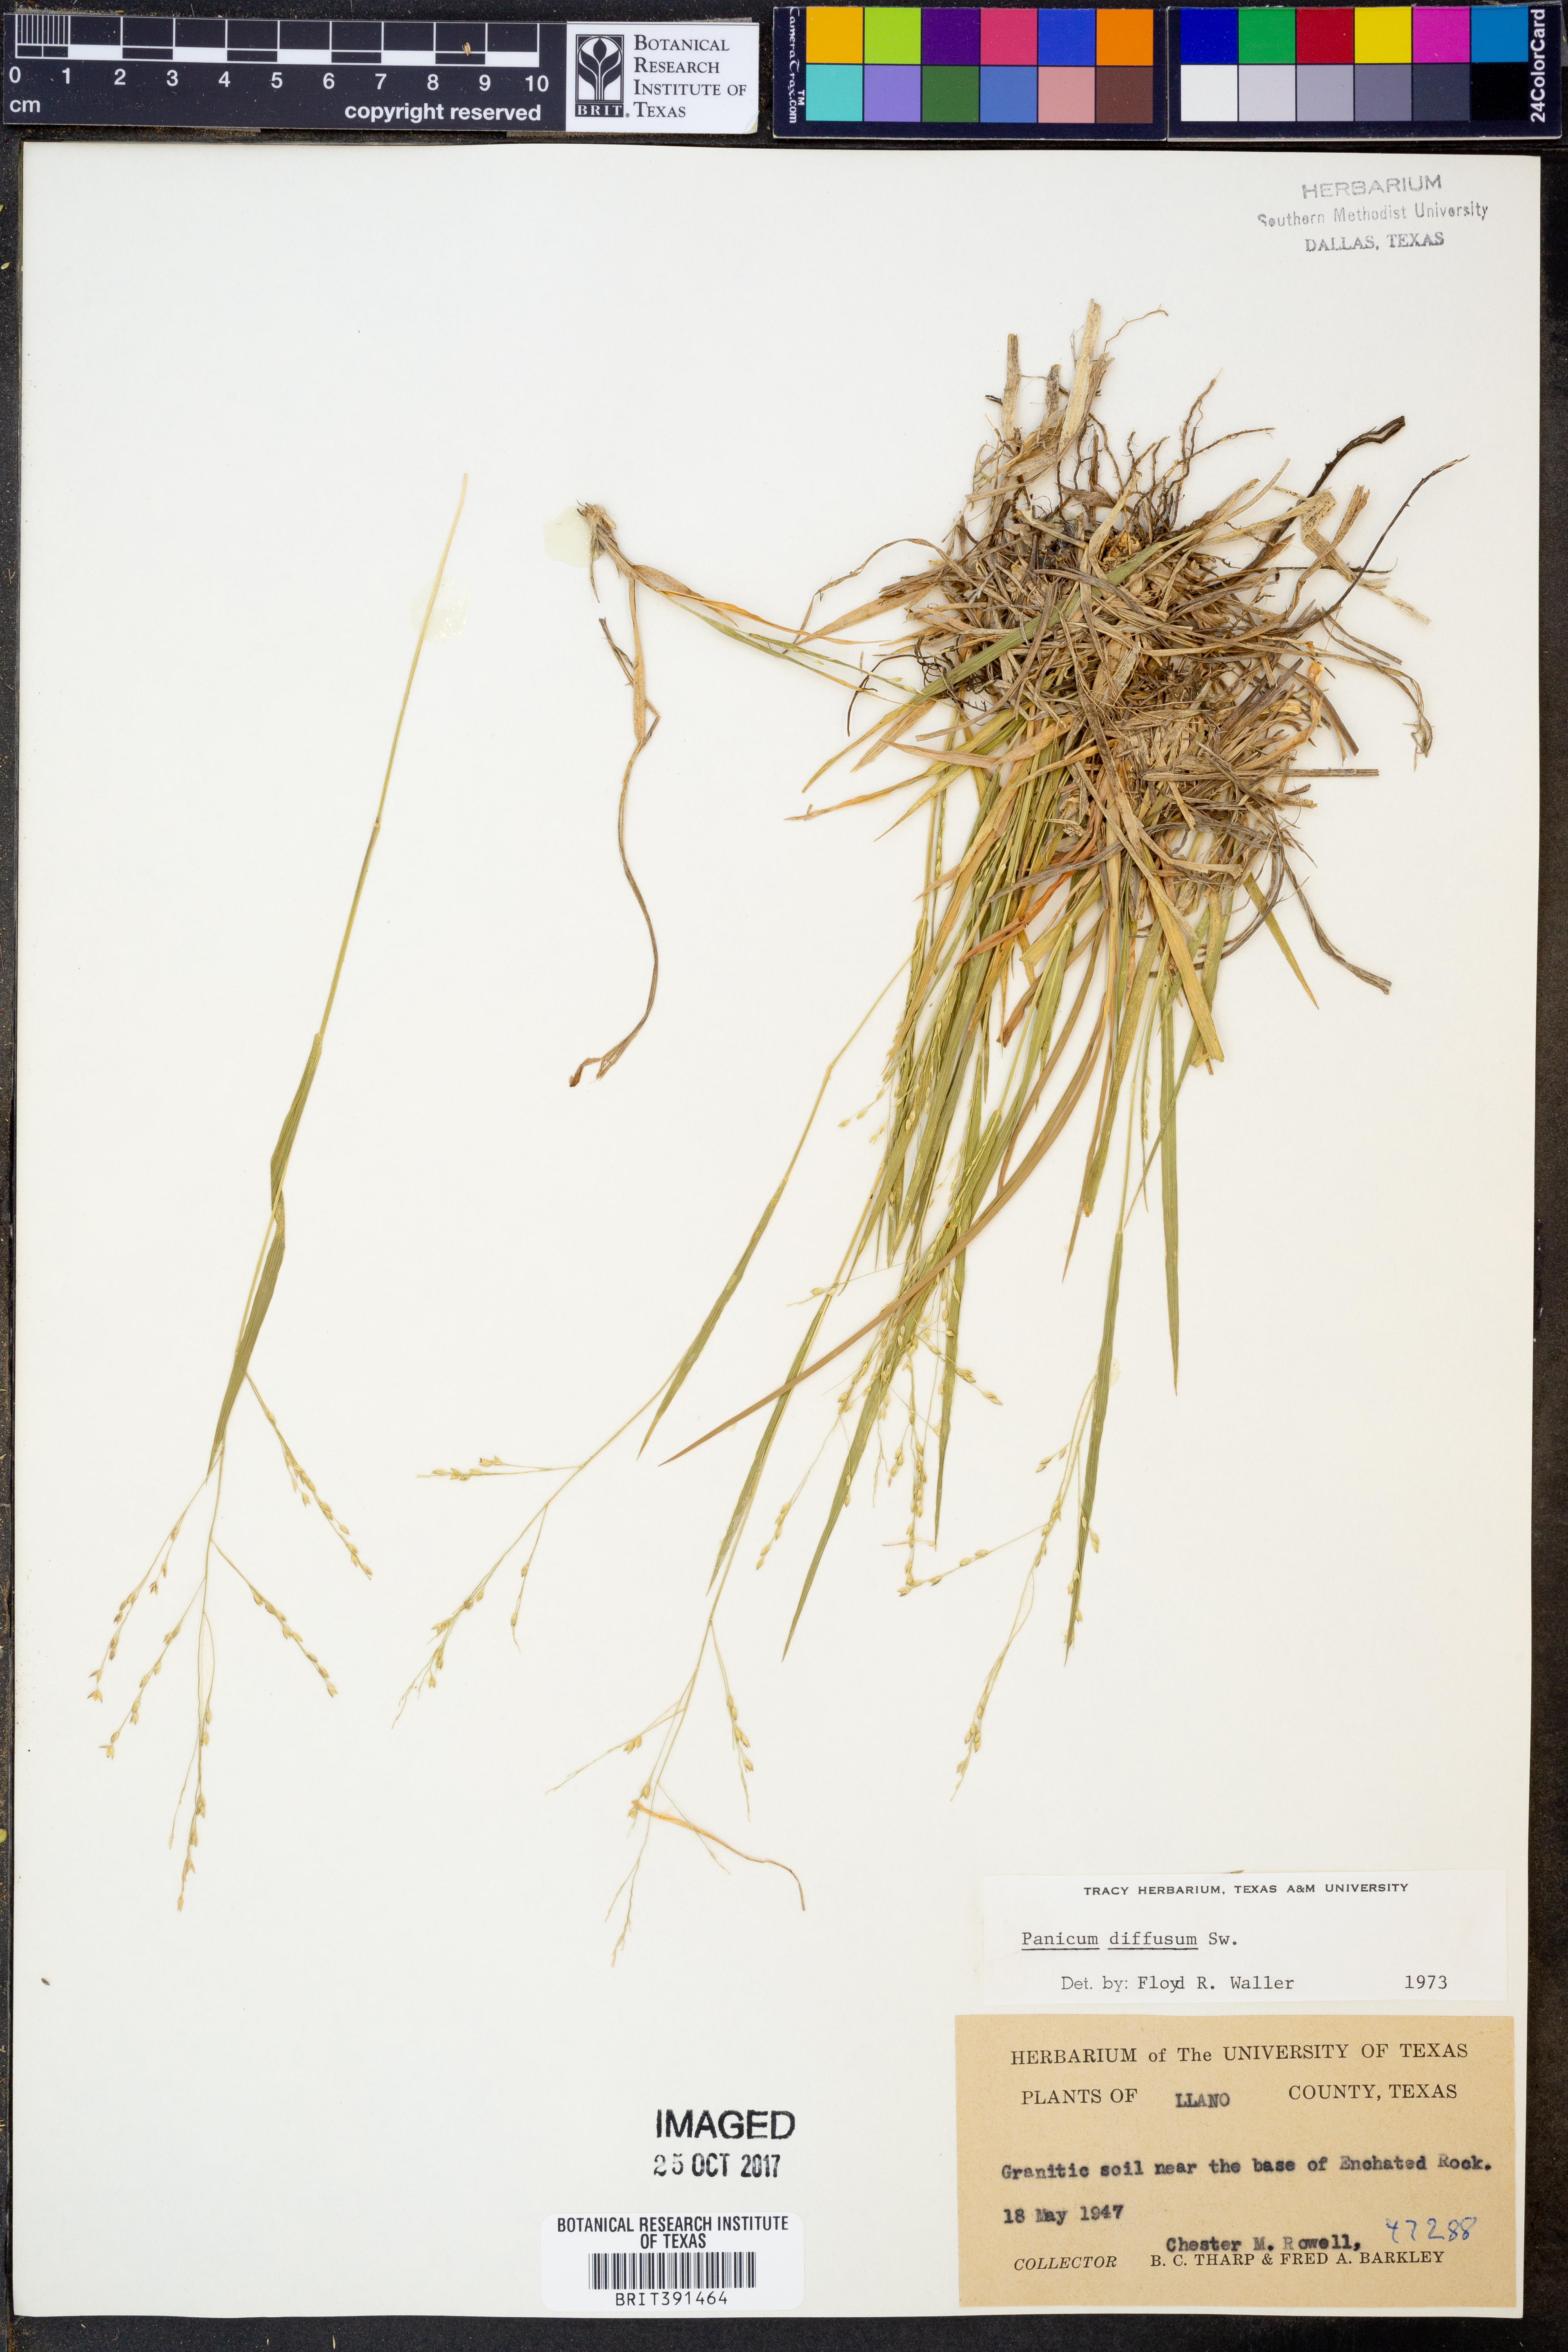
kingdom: Plantae
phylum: Tracheophyta
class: Liliopsida
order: Poales
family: Poaceae
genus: Panicum
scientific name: Panicum diffusum
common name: Spreading panicgrass
